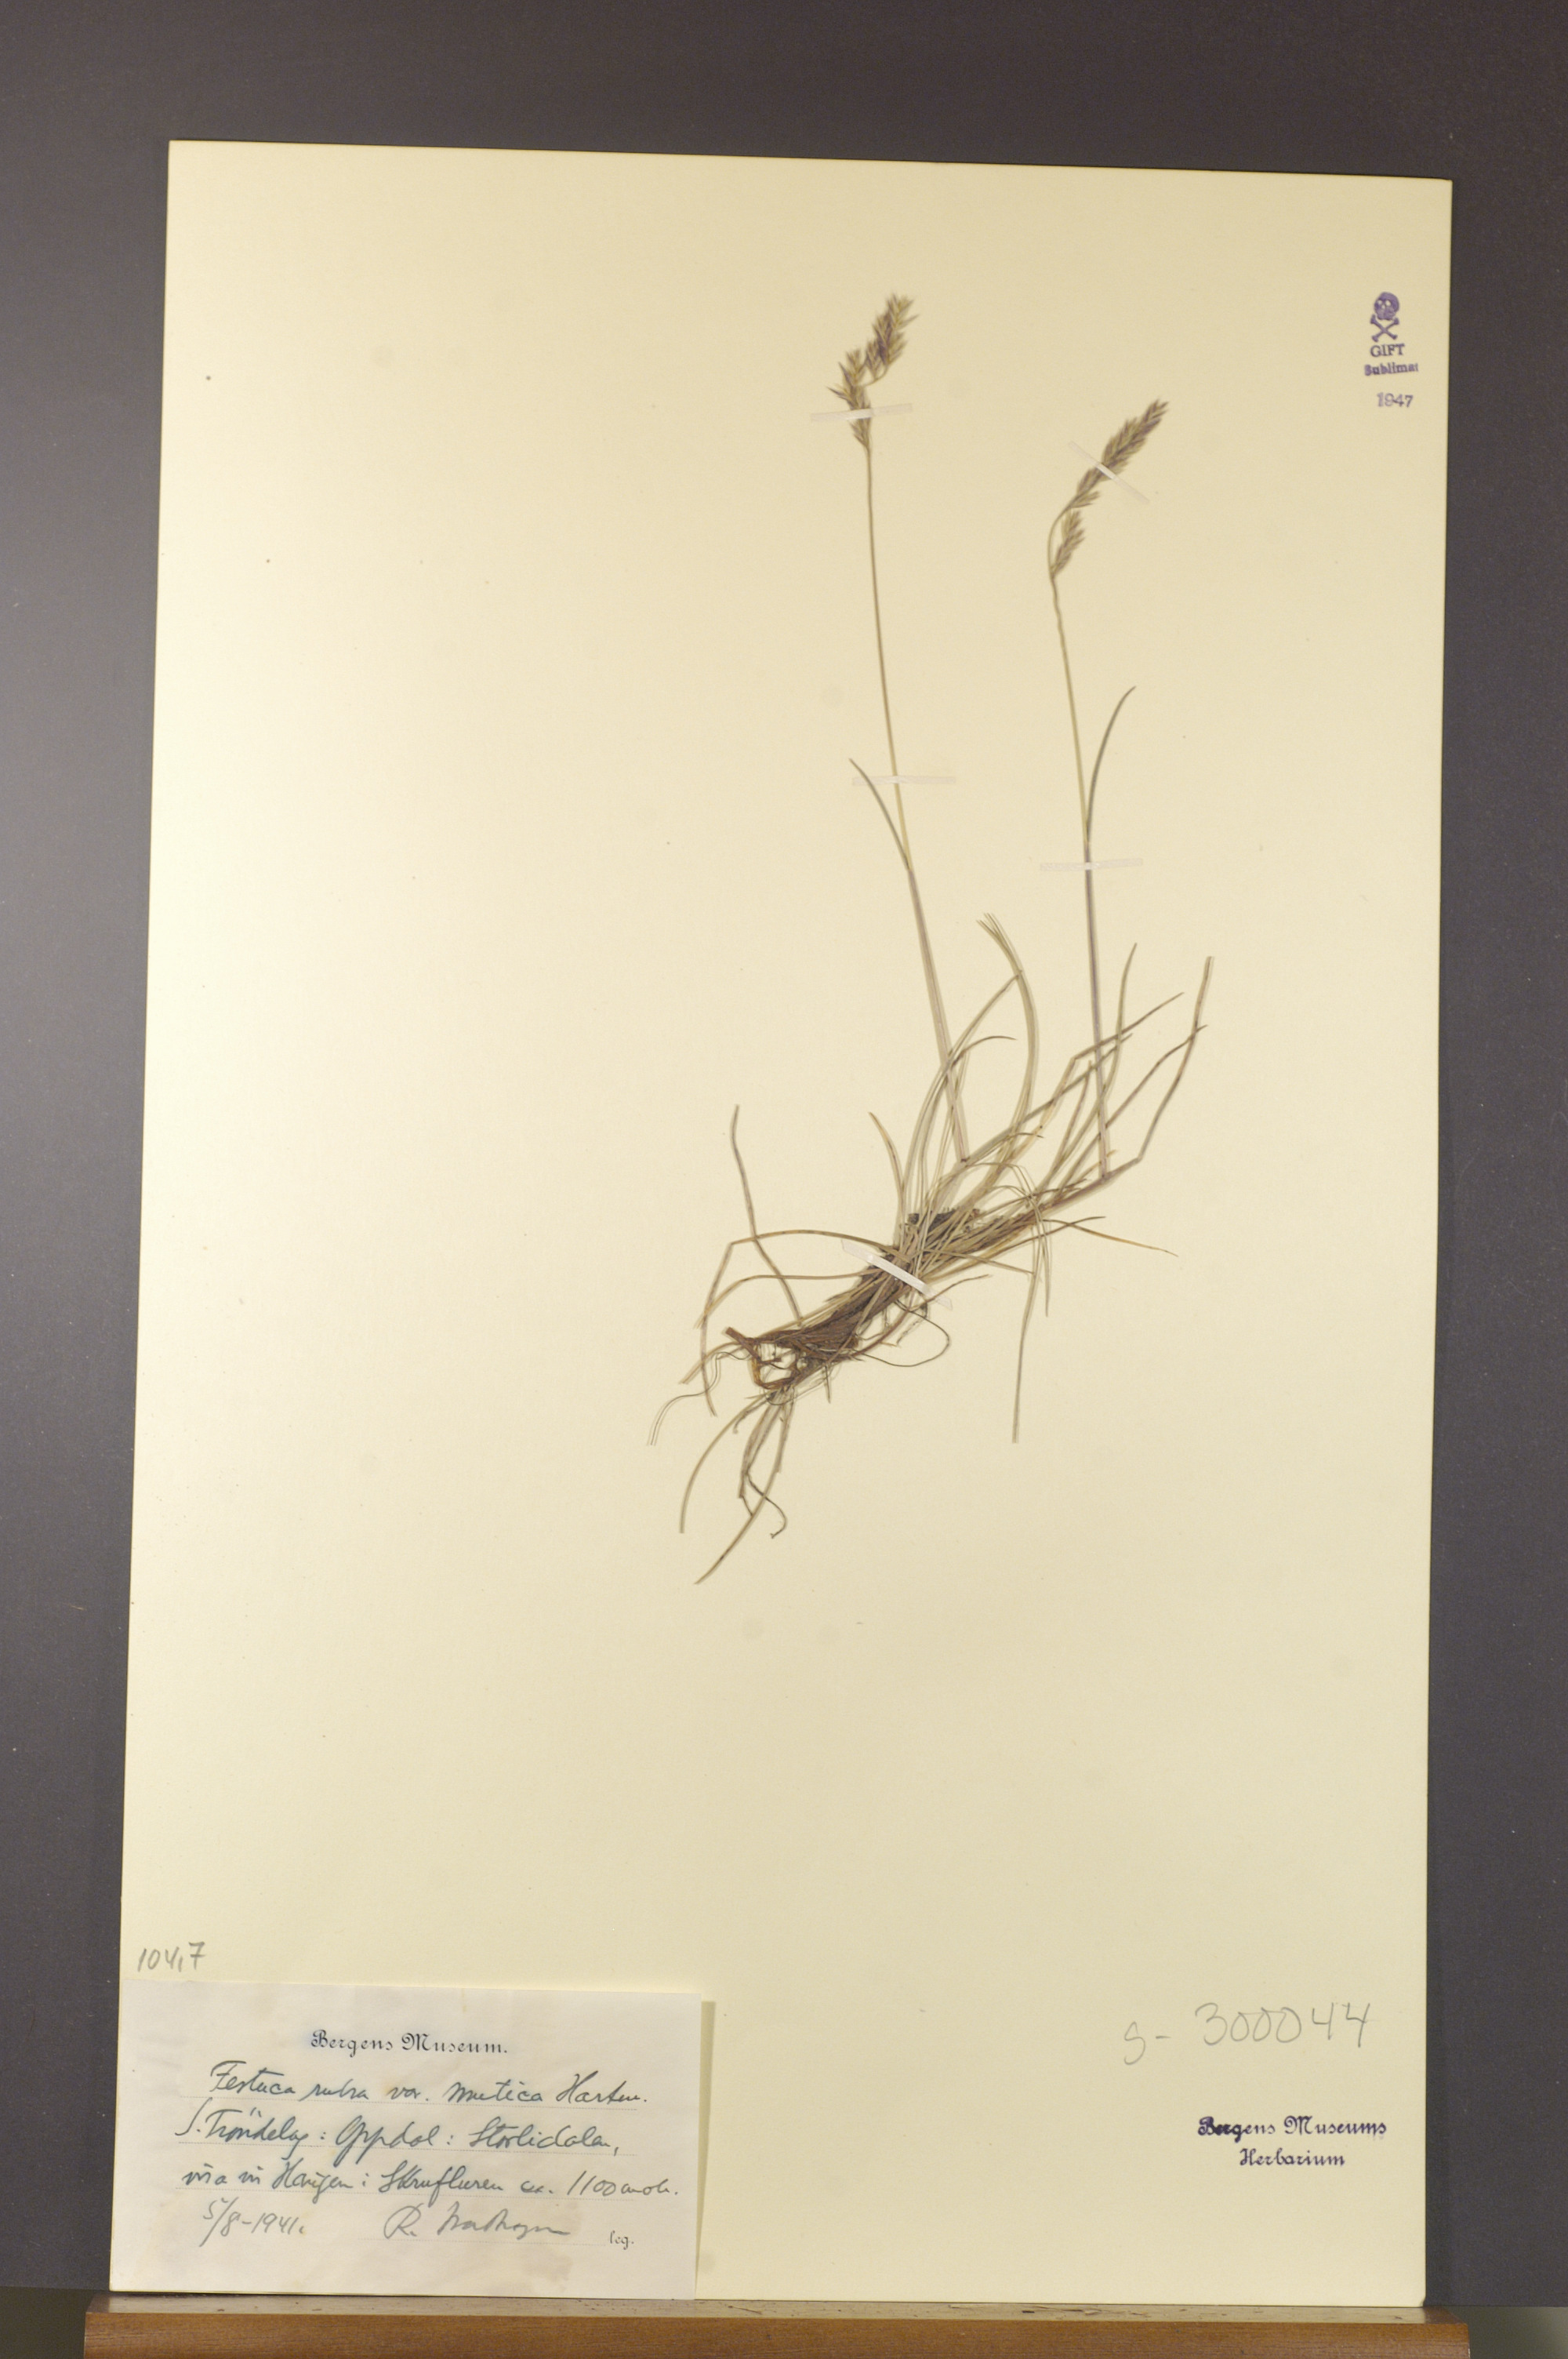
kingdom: Plantae
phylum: Tracheophyta
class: Liliopsida
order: Poales
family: Poaceae
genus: Festuca
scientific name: Festuca richardsonii
